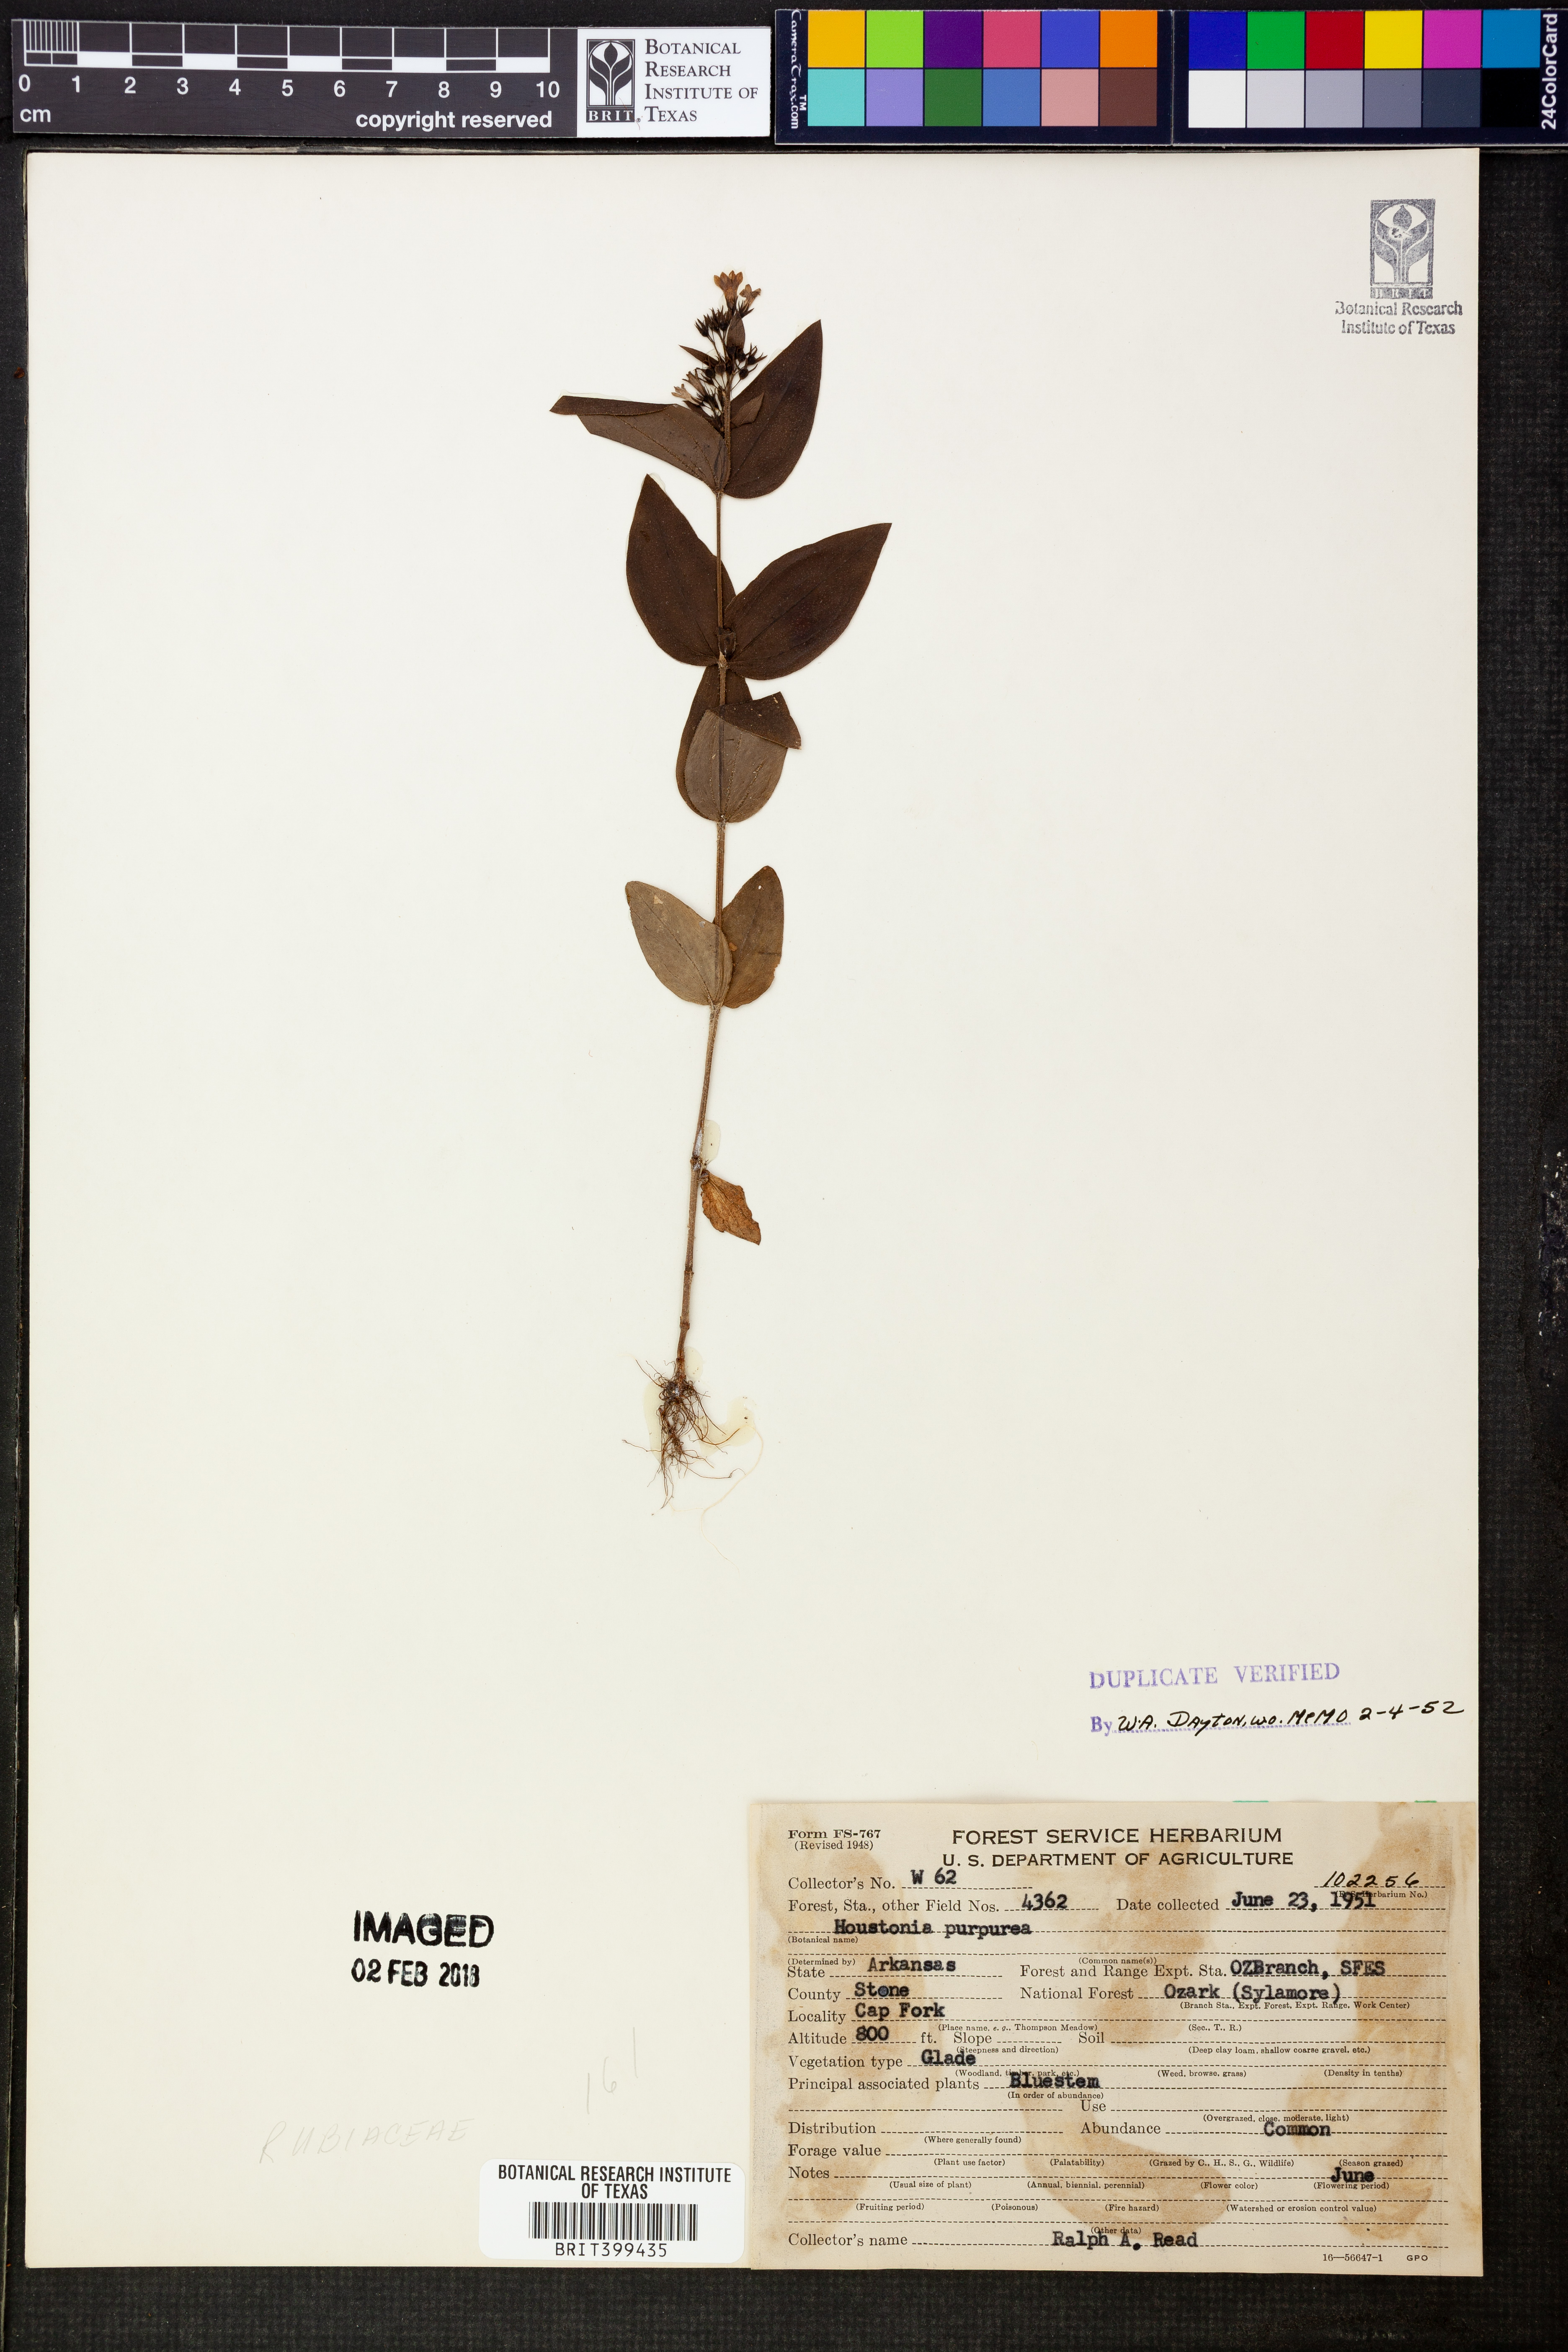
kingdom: Plantae
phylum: Tracheophyta
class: Magnoliopsida
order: Gentianales
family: Rubiaceae
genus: Houstonia
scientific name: Houstonia purpurea
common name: Summer bluet
